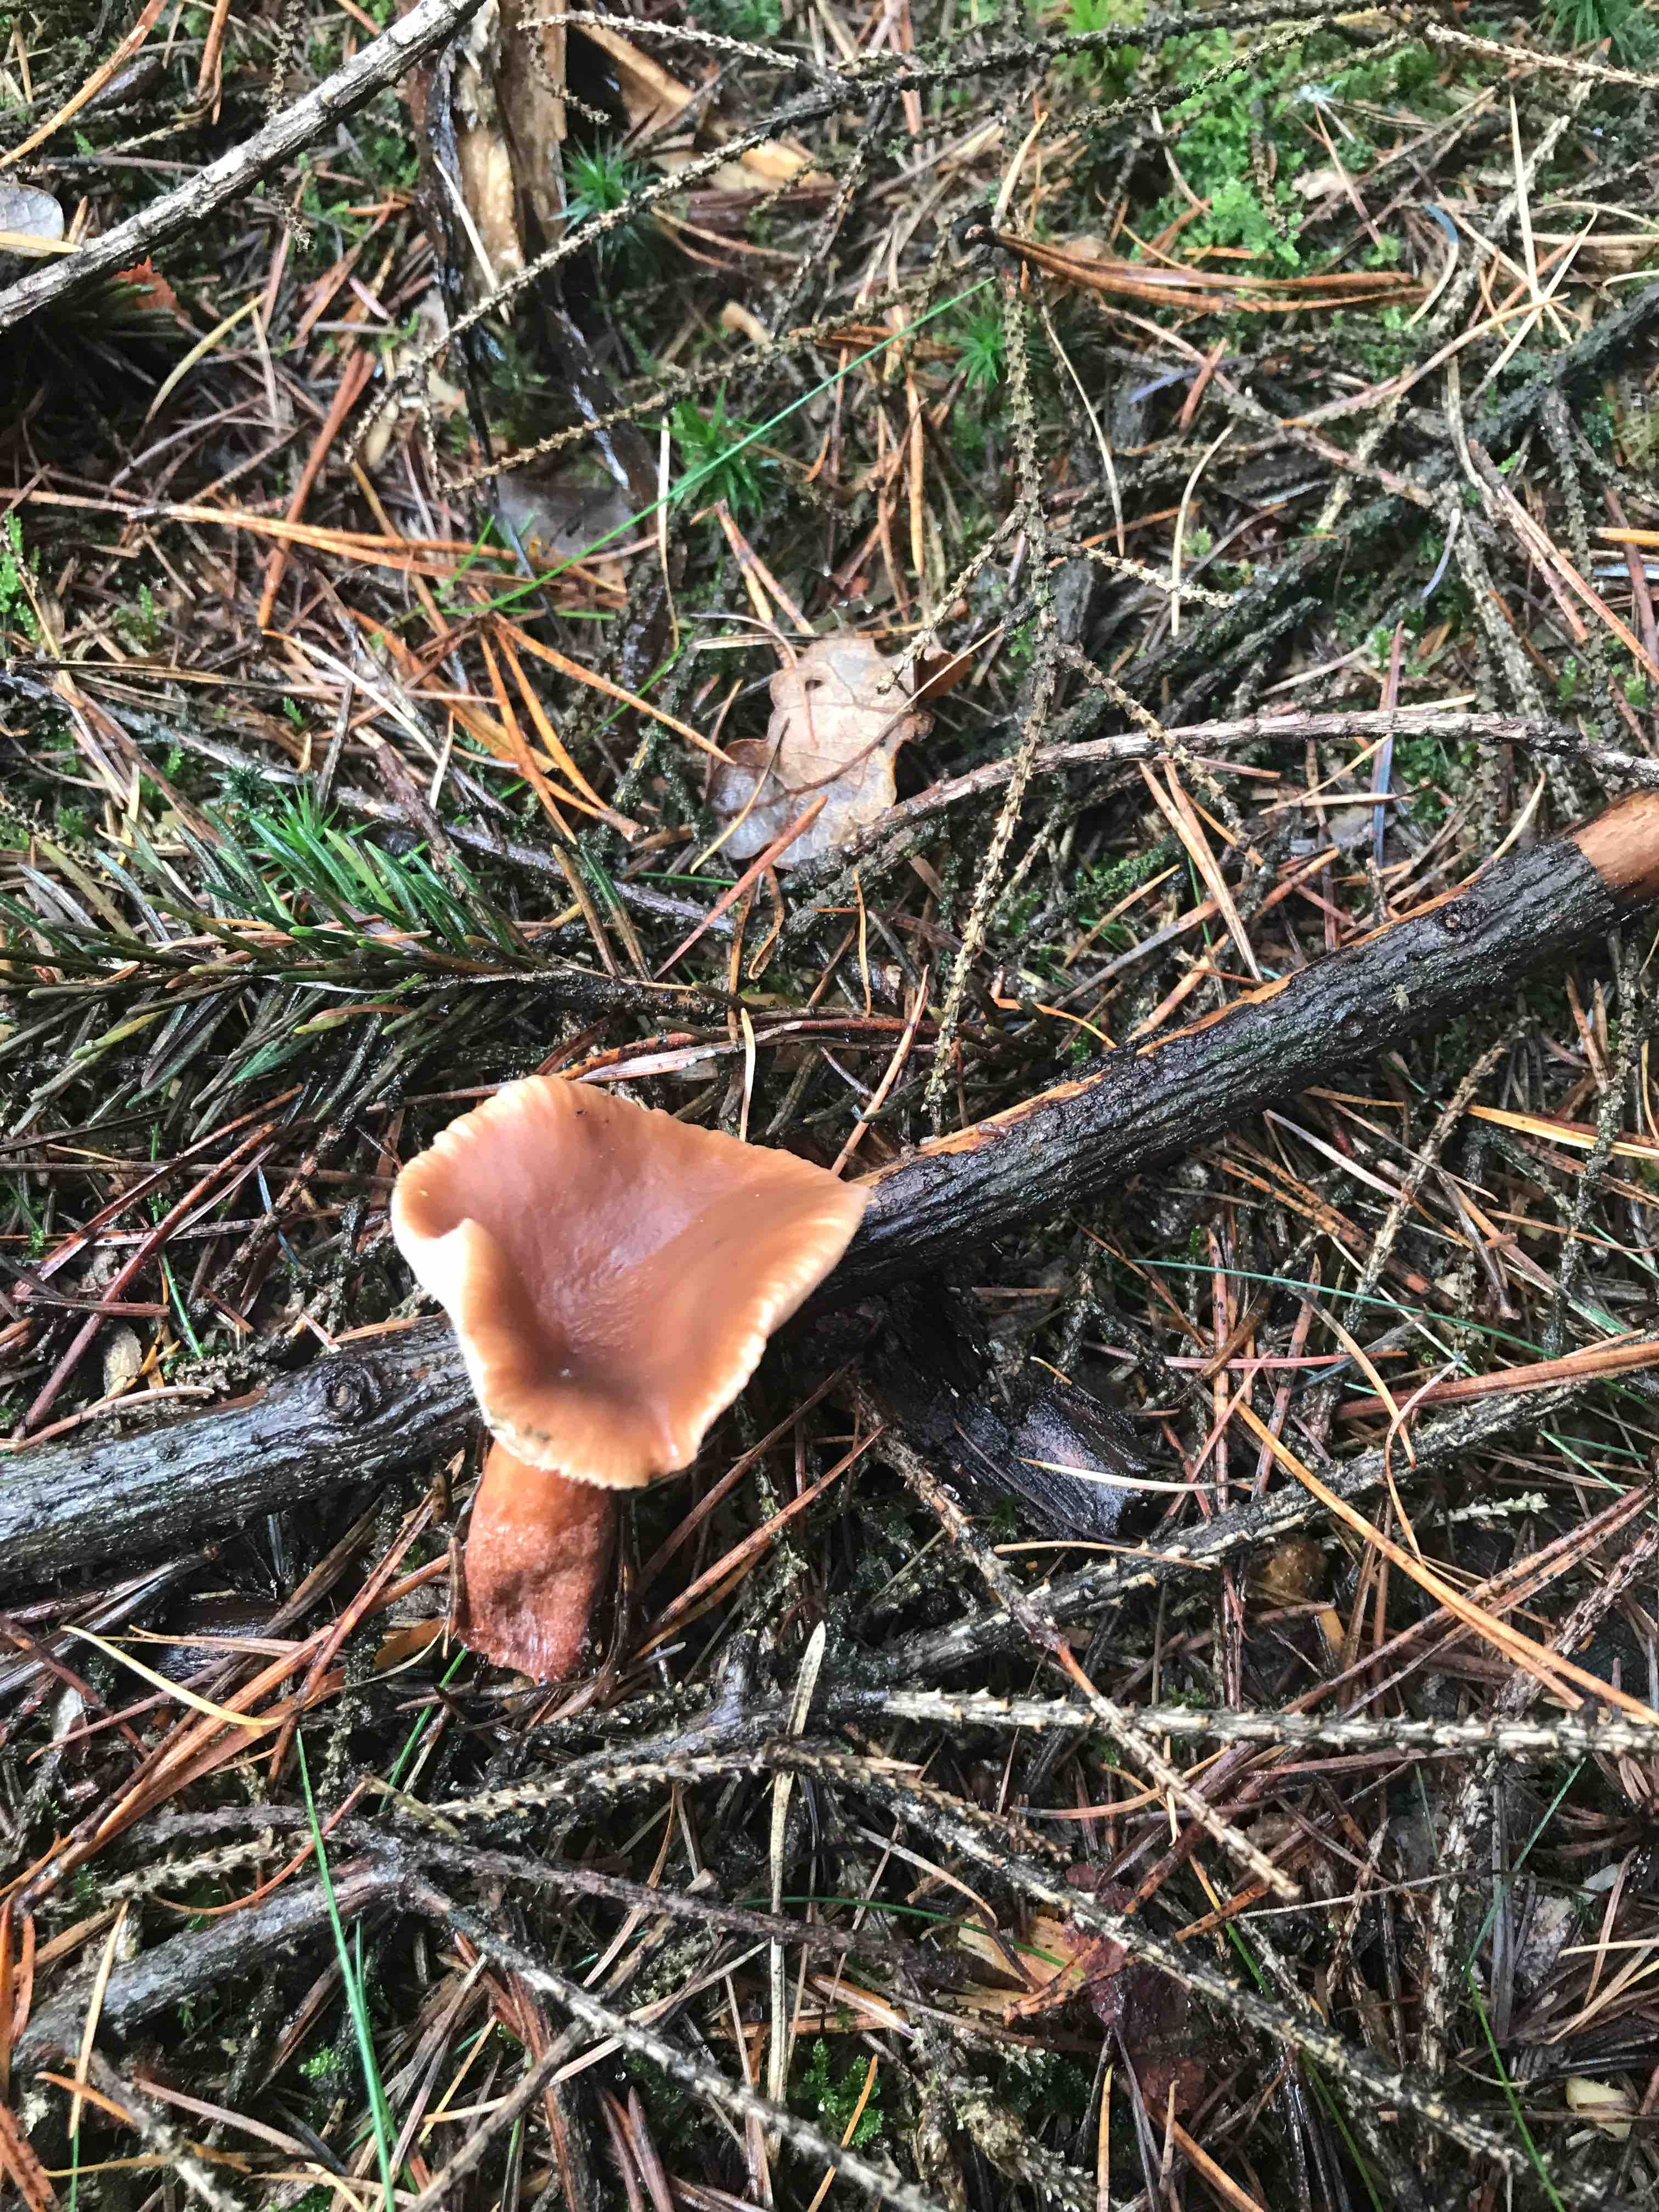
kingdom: Fungi
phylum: Basidiomycota
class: Agaricomycetes
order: Russulales
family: Russulaceae
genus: Lactarius
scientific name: Lactarius hepaticus
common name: leverbrun mælkehat
